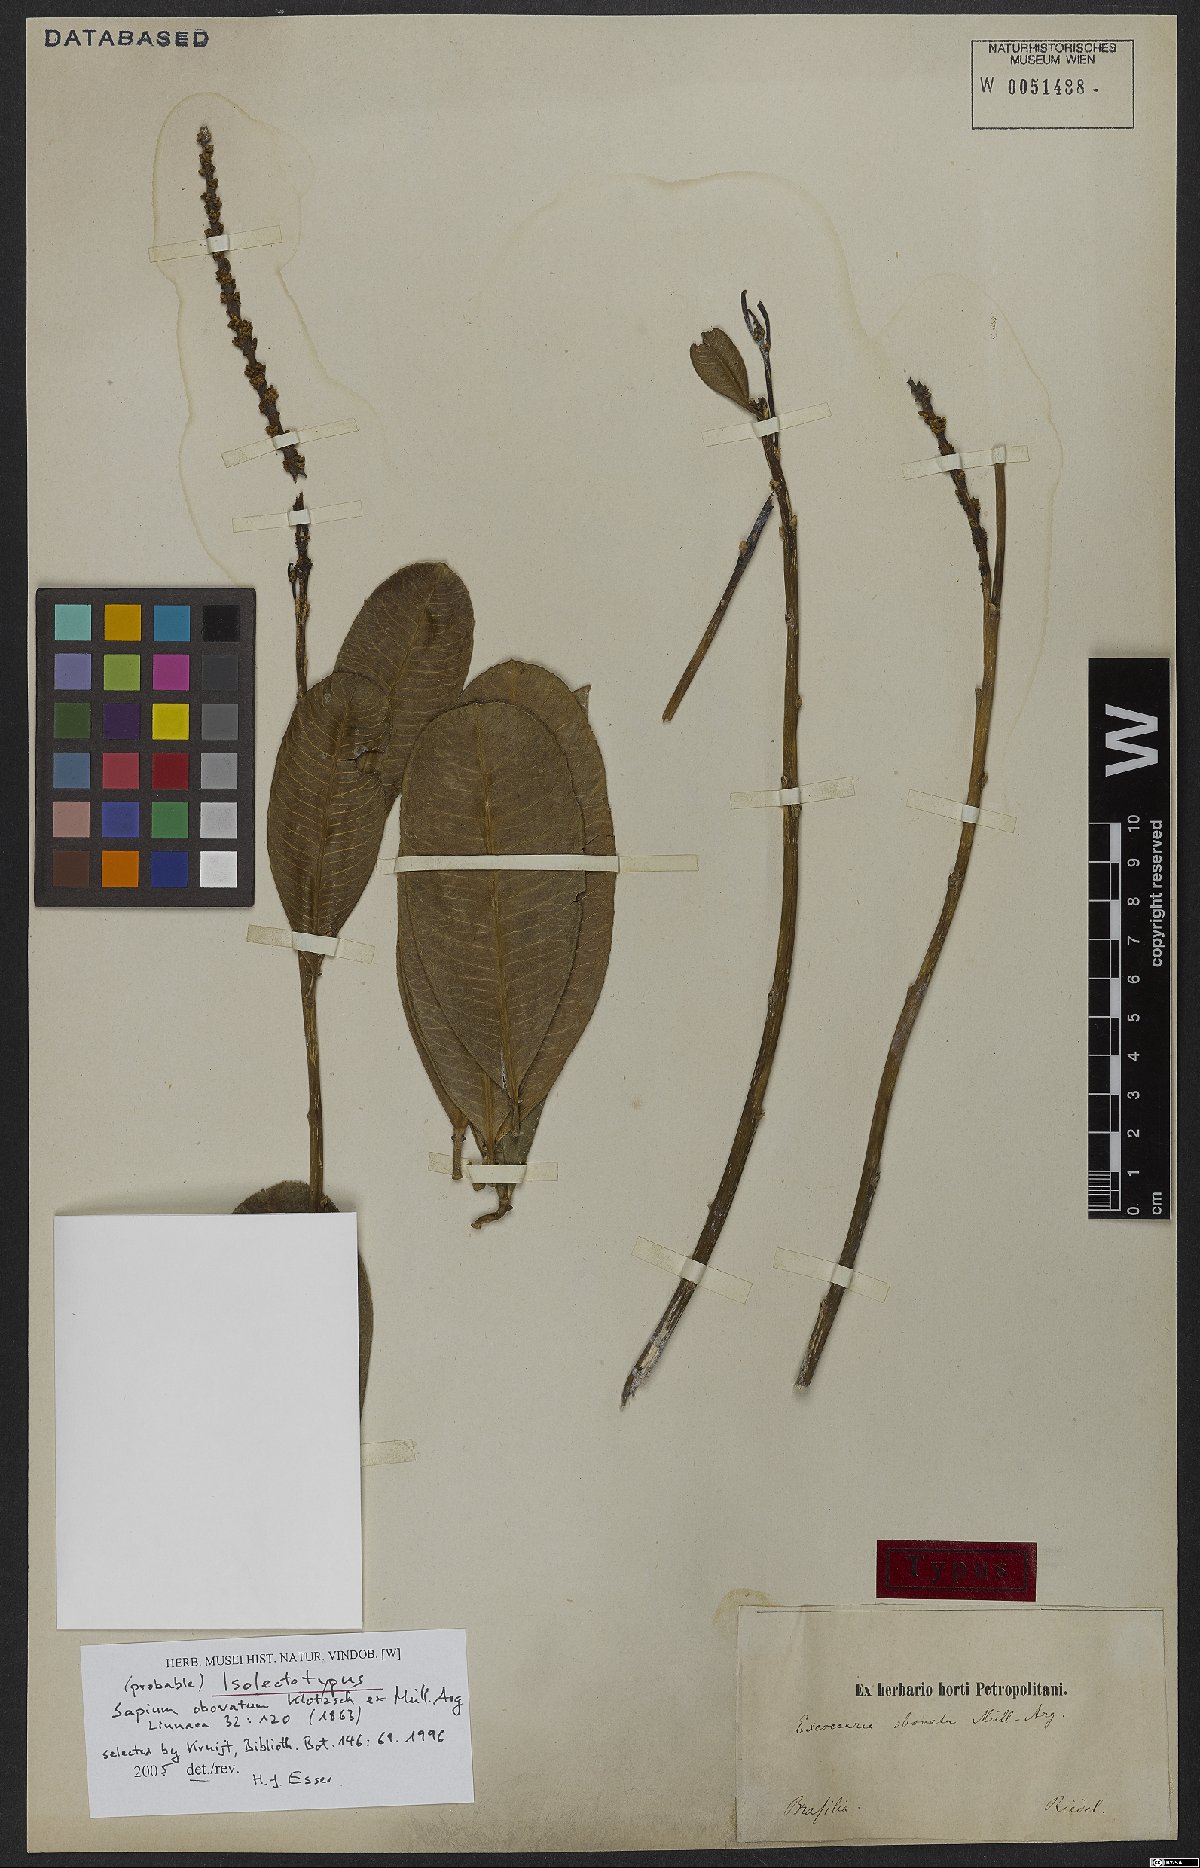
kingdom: Plantae
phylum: Tracheophyta
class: Magnoliopsida
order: Malpighiales
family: Euphorbiaceae
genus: Sapium
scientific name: Sapium obovatum
